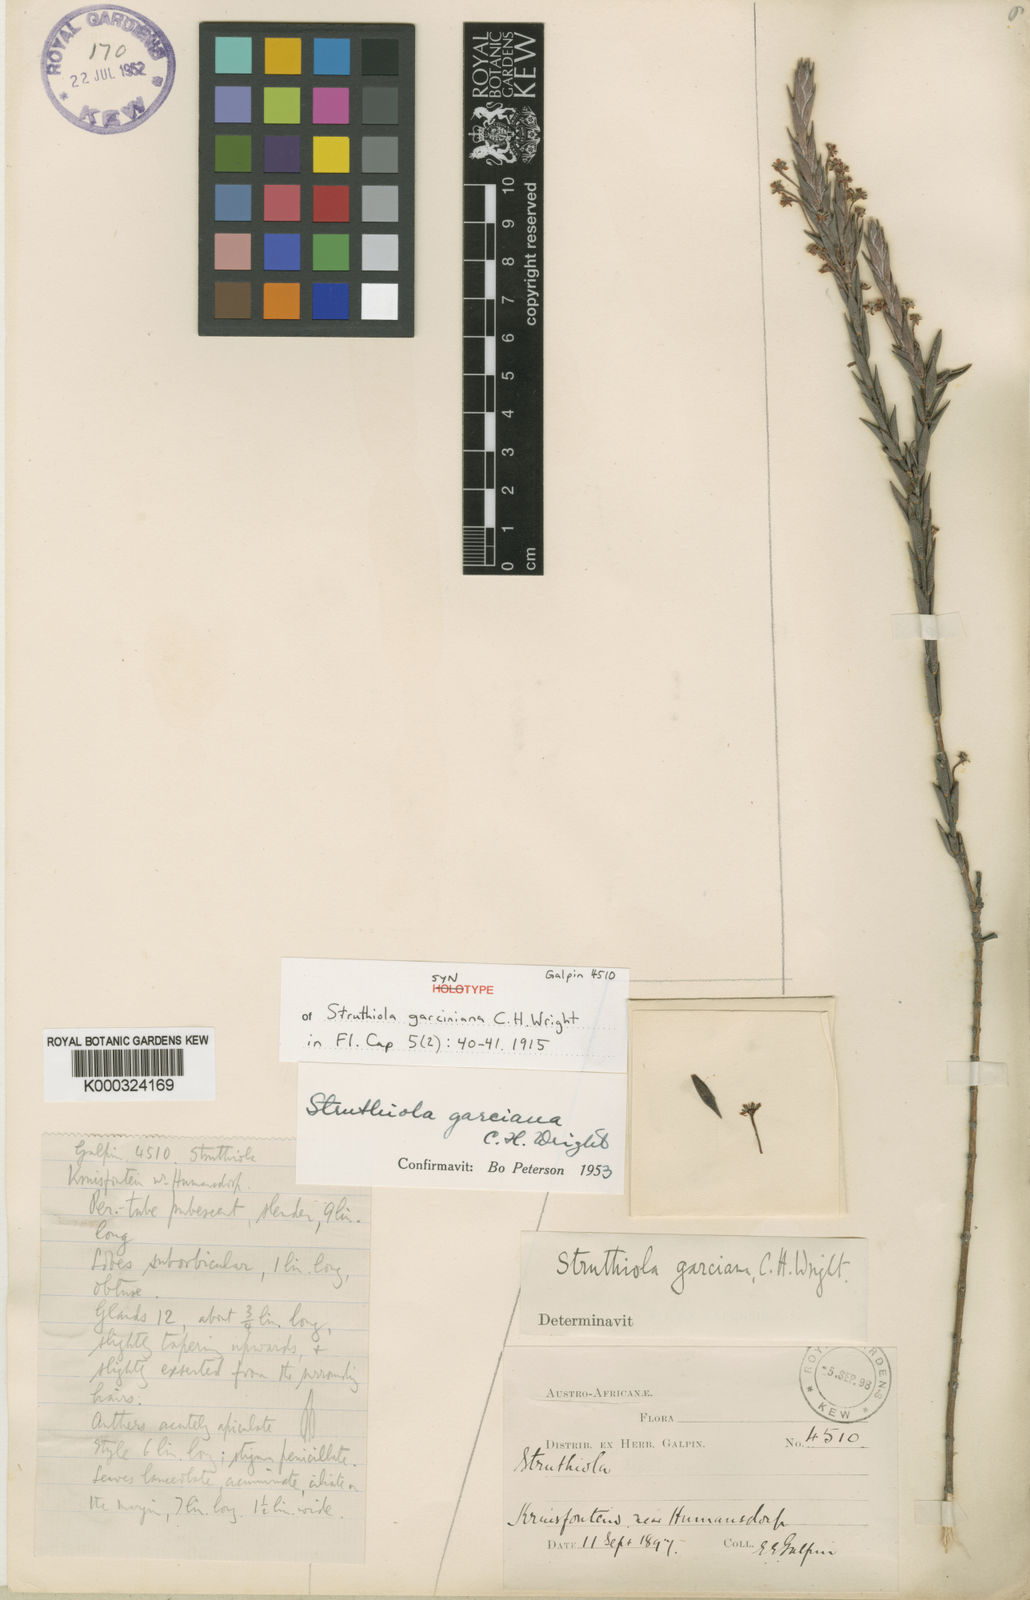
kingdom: Plantae
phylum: Tracheophyta
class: Magnoliopsida
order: Malvales
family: Thymelaeaceae
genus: Struthiola
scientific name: Struthiola garciana
